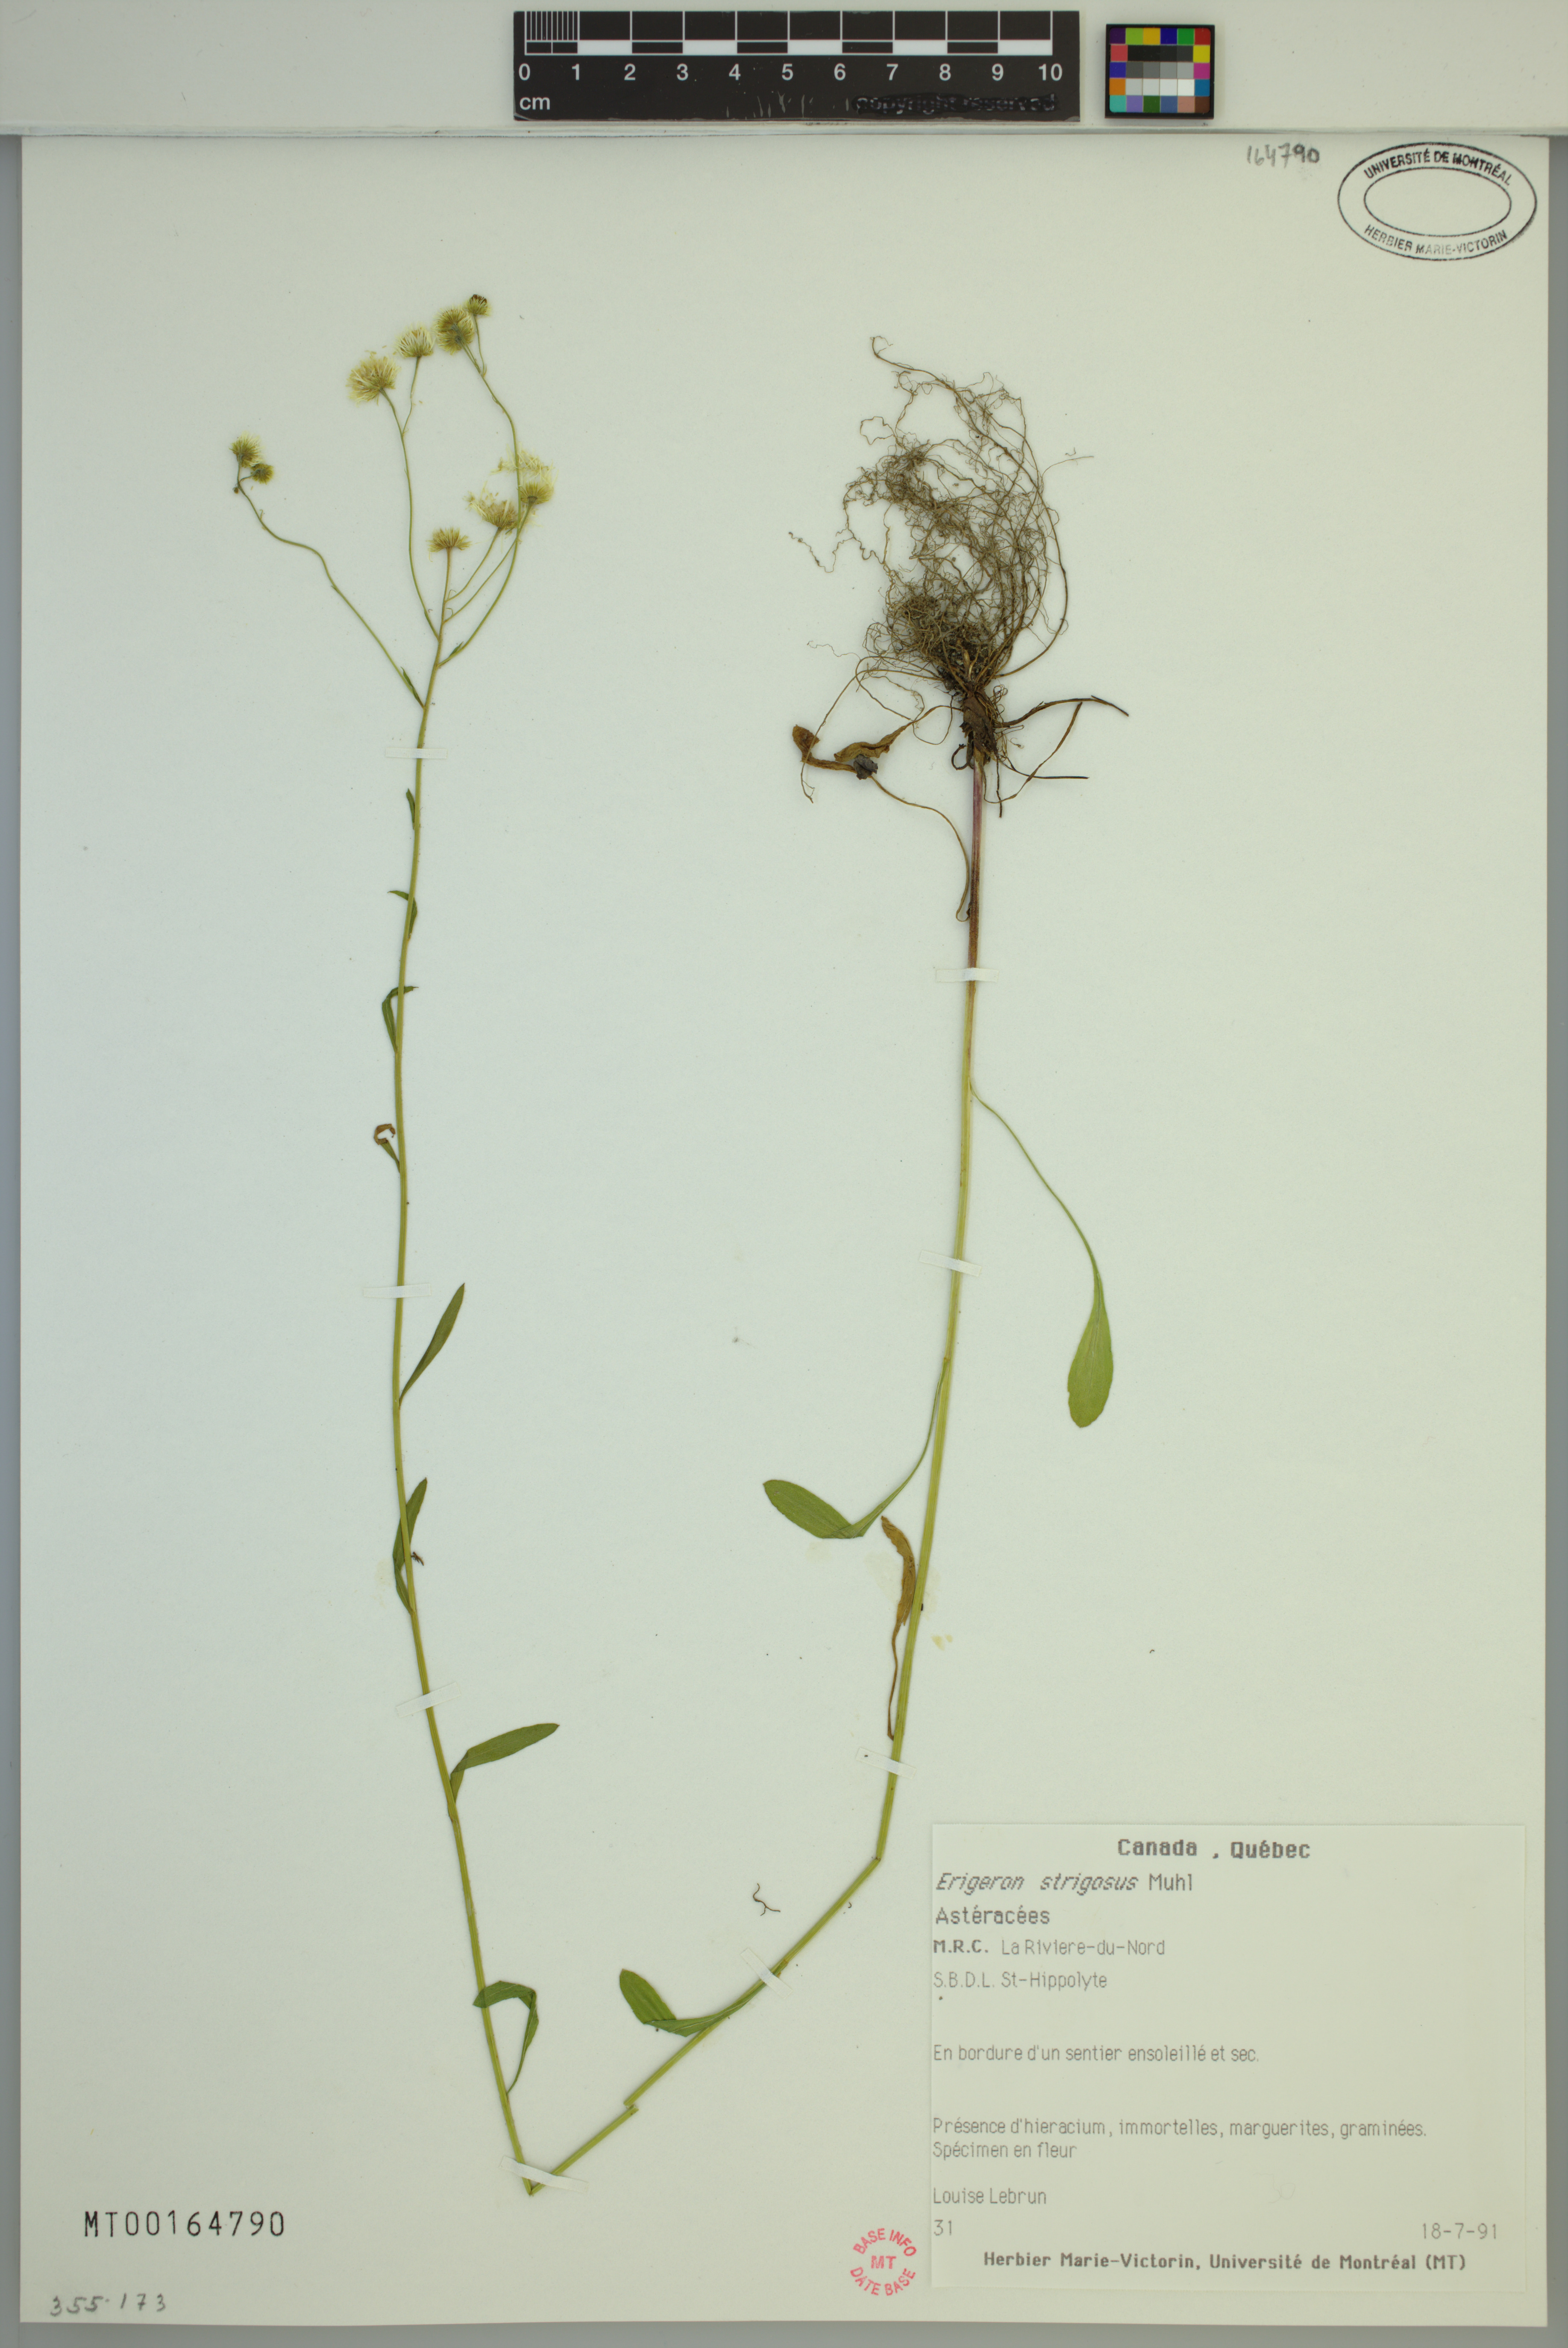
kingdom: Plantae
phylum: Tracheophyta
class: Magnoliopsida
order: Asterales
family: Asteraceae
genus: Erigeron
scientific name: Erigeron strigosus
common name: Common eastern fleabane
